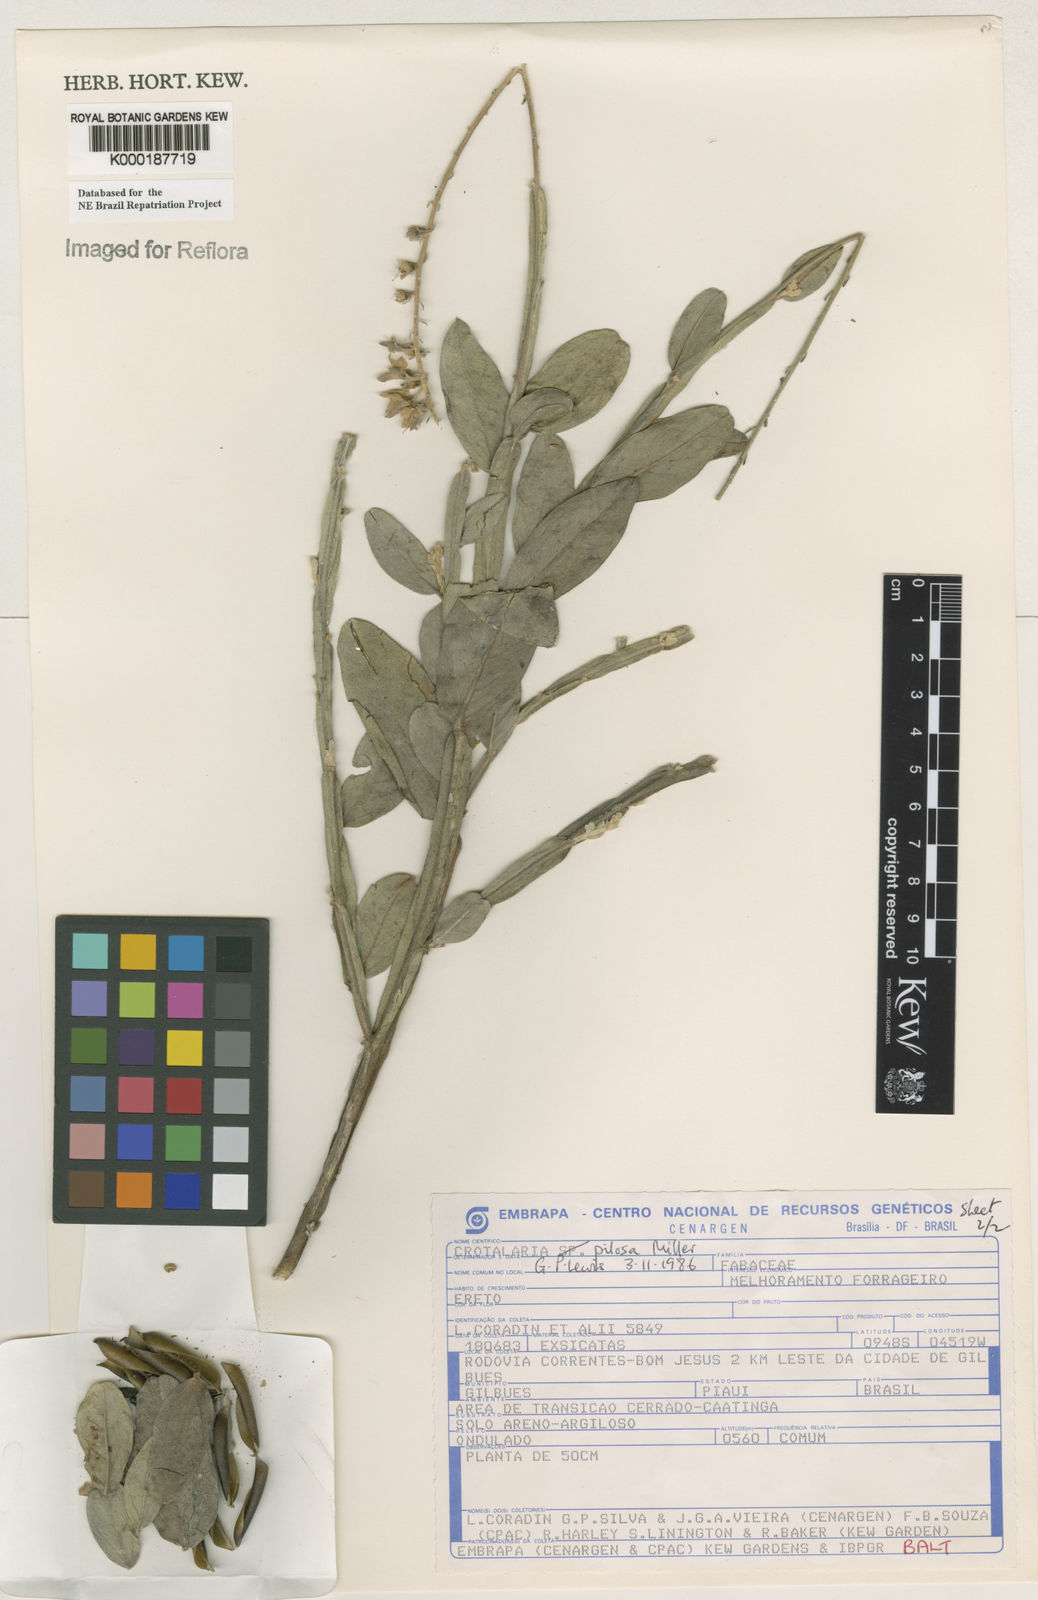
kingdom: Plantae
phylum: Tracheophyta
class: Magnoliopsida
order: Fabales
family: Fabaceae
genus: Crotalaria
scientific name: Crotalaria pilosa
